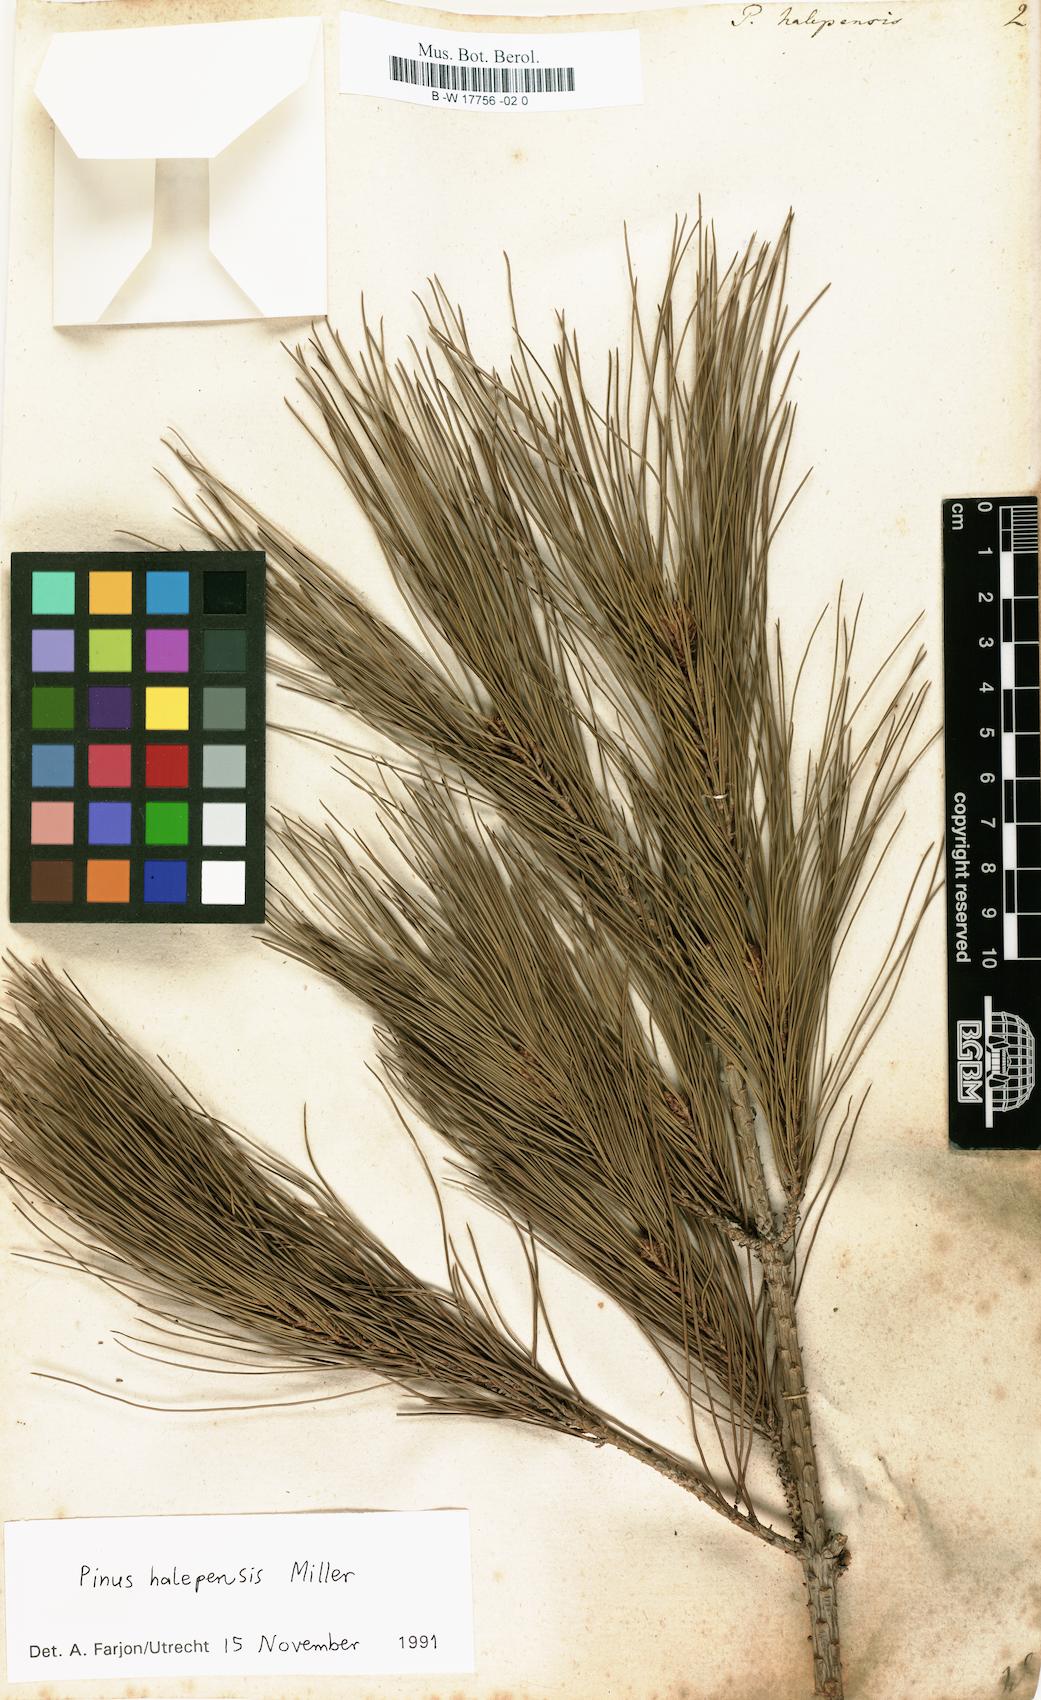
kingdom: Plantae
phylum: Tracheophyta
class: Pinopsida
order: Pinales
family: Pinaceae
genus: Pinus
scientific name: Pinus halepensis
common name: Aleppo pine
